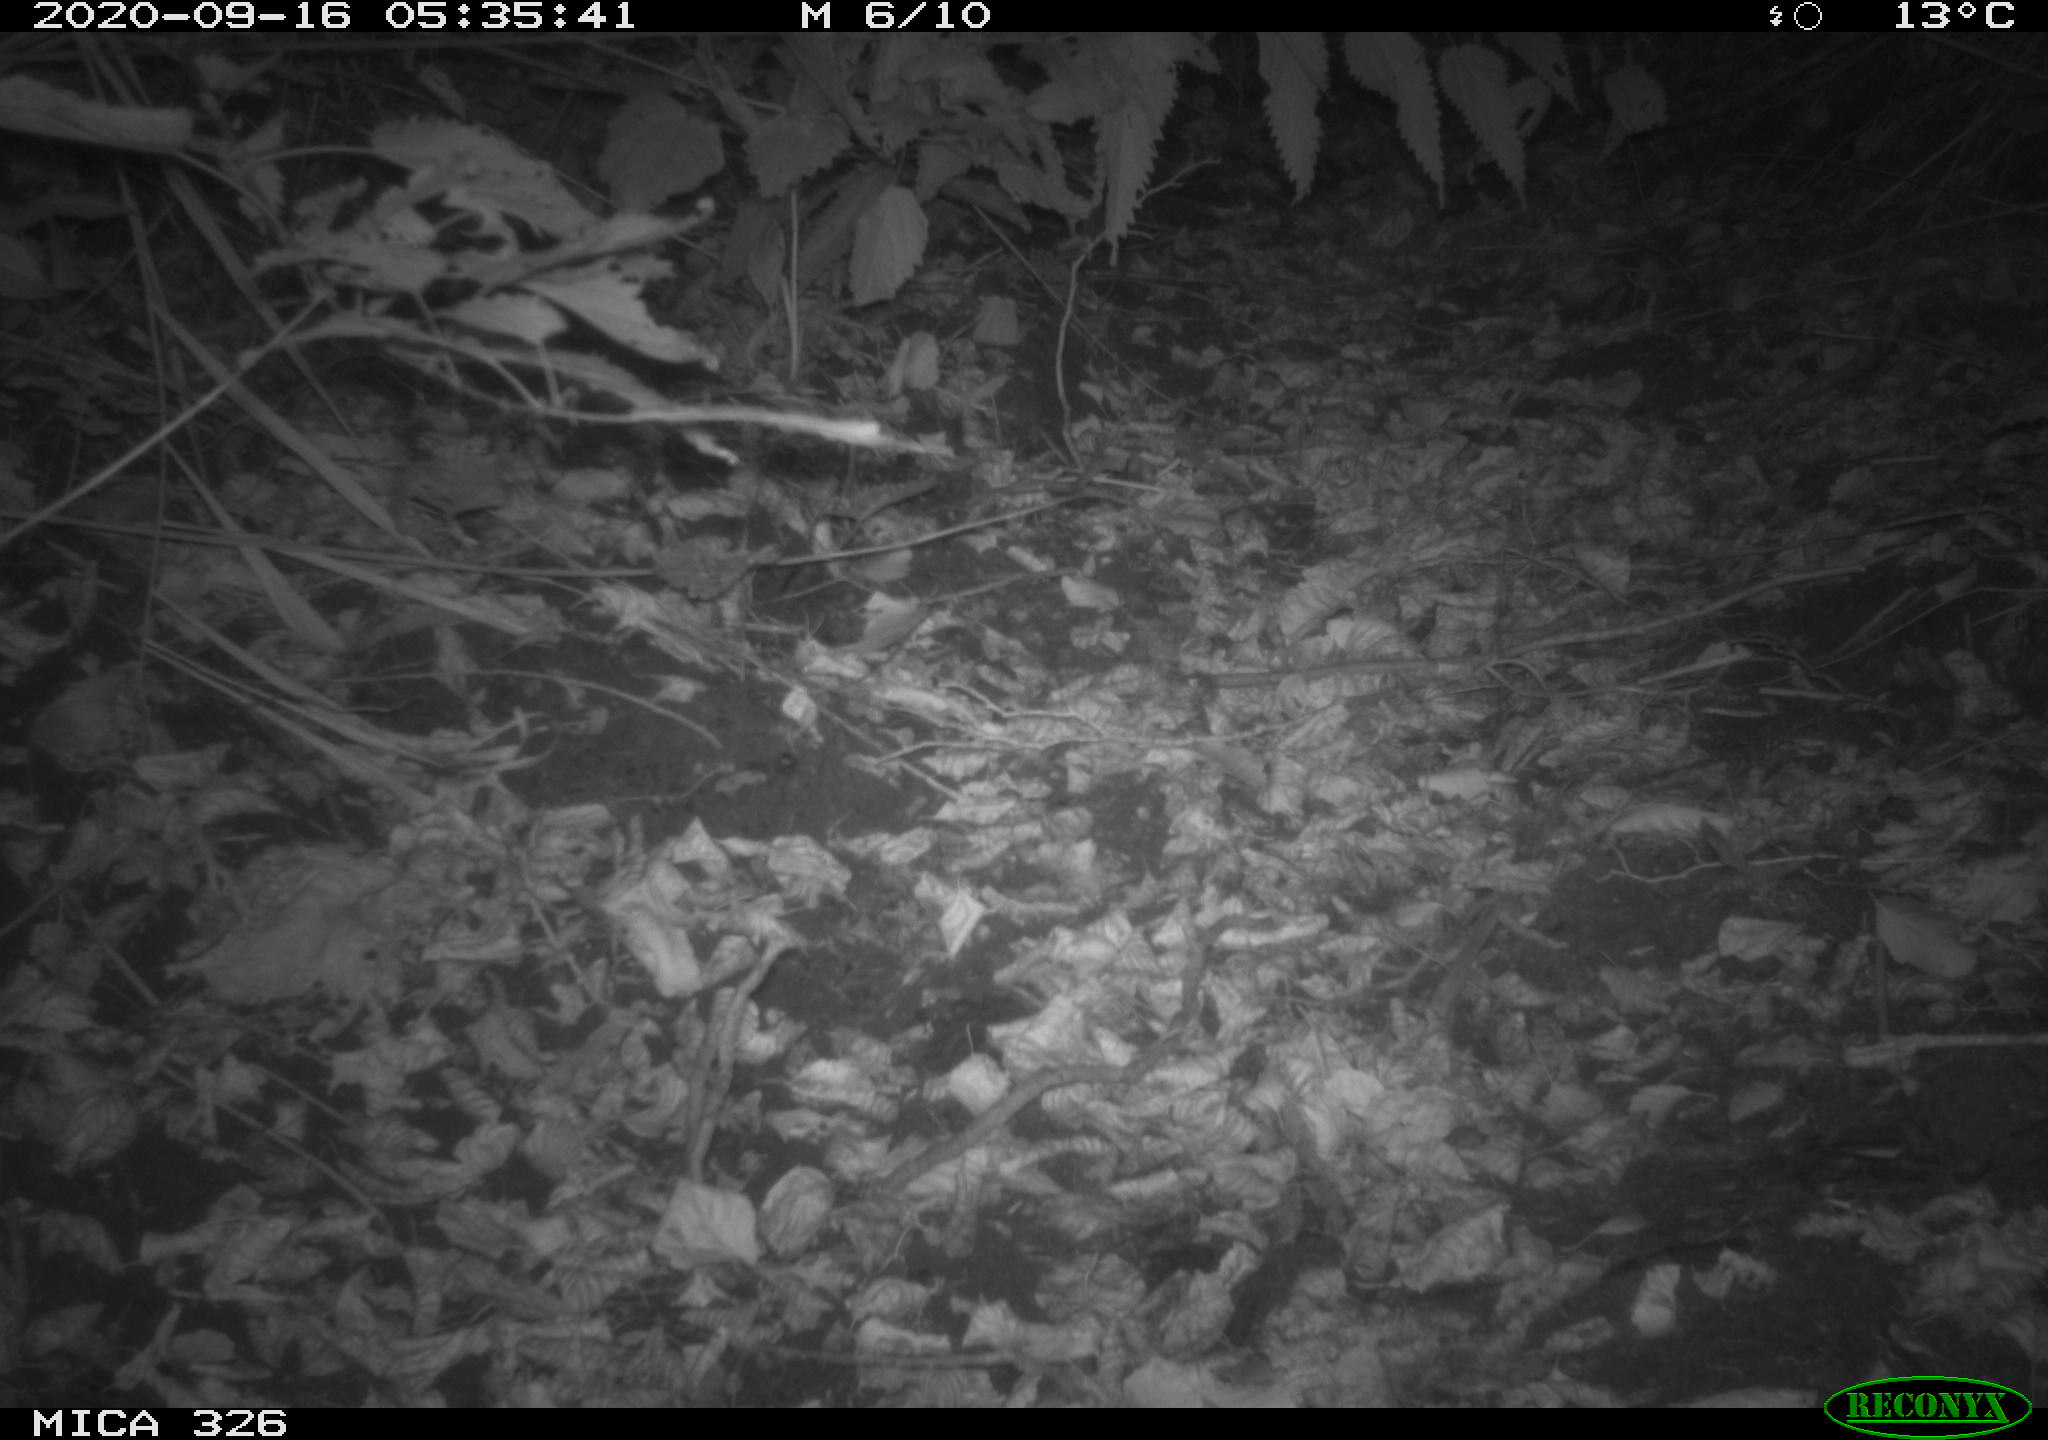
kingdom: Animalia
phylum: Chordata
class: Mammalia
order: Carnivora
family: Mustelidae
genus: Lutra
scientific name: Lutra lutra
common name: European otter
